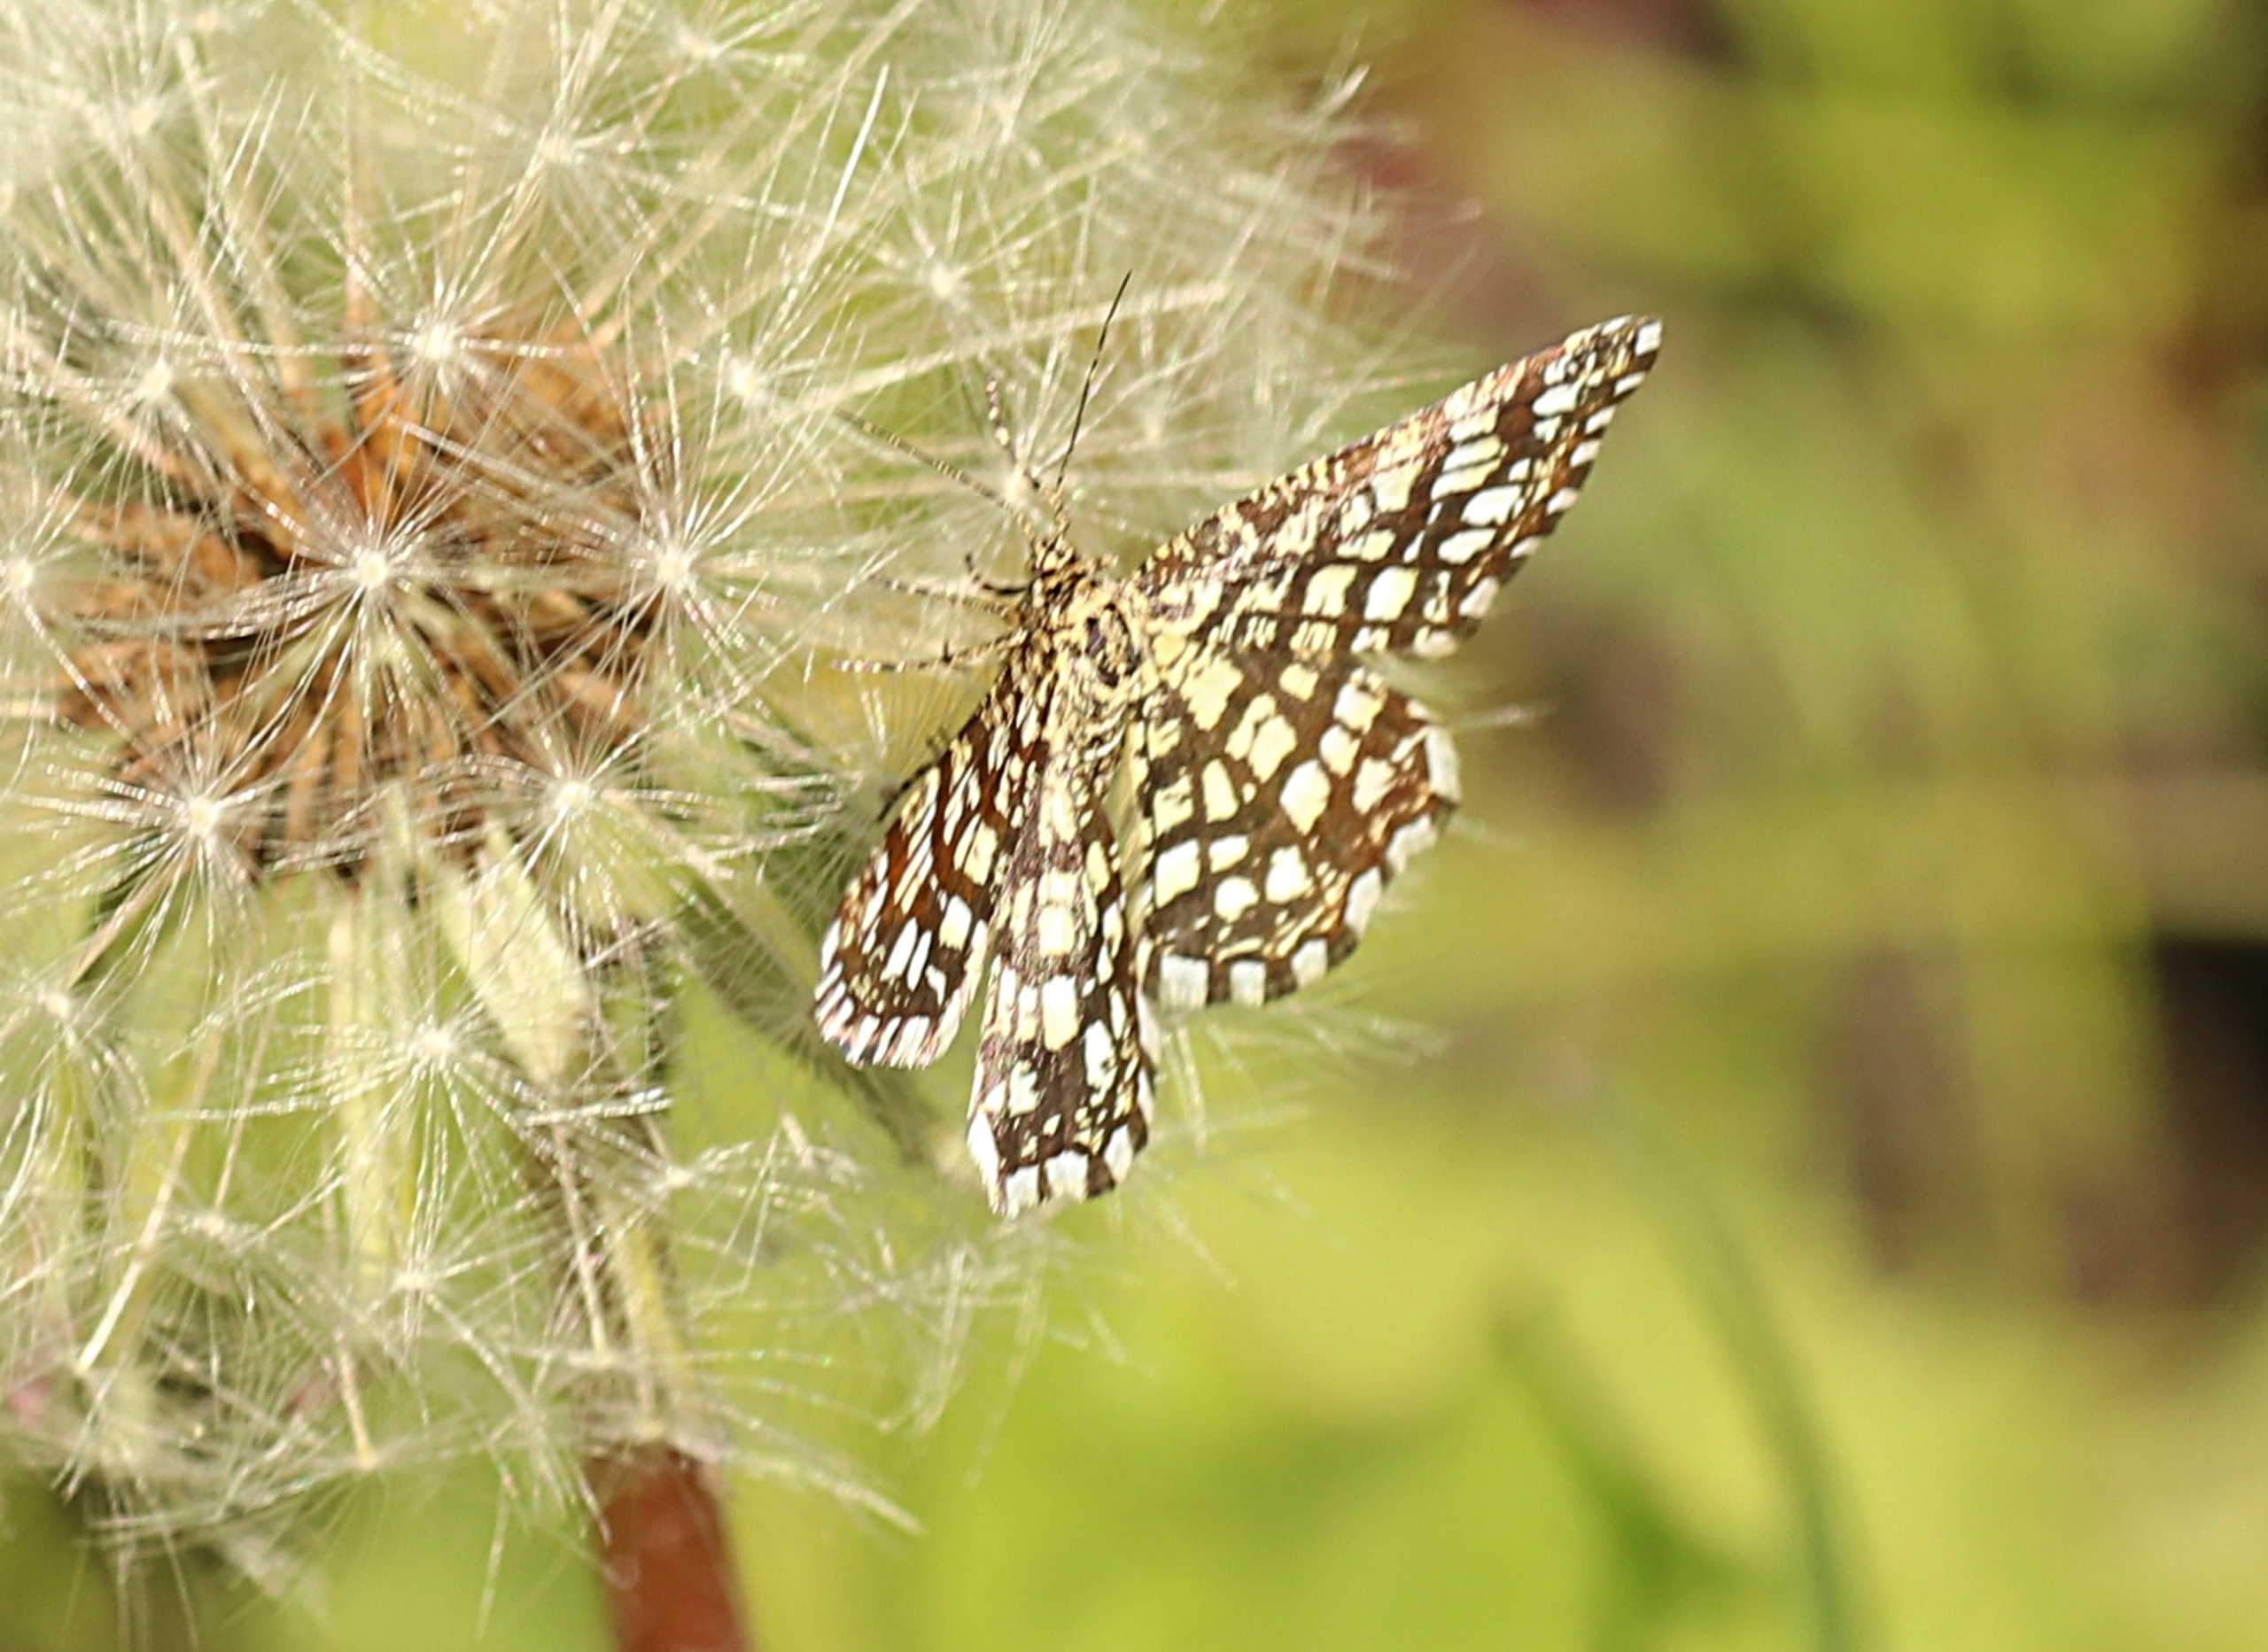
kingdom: Animalia
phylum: Arthropoda
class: Insecta
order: Lepidoptera
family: Geometridae
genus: Chiasmia
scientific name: Chiasmia clathrata
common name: Kløvermåler
